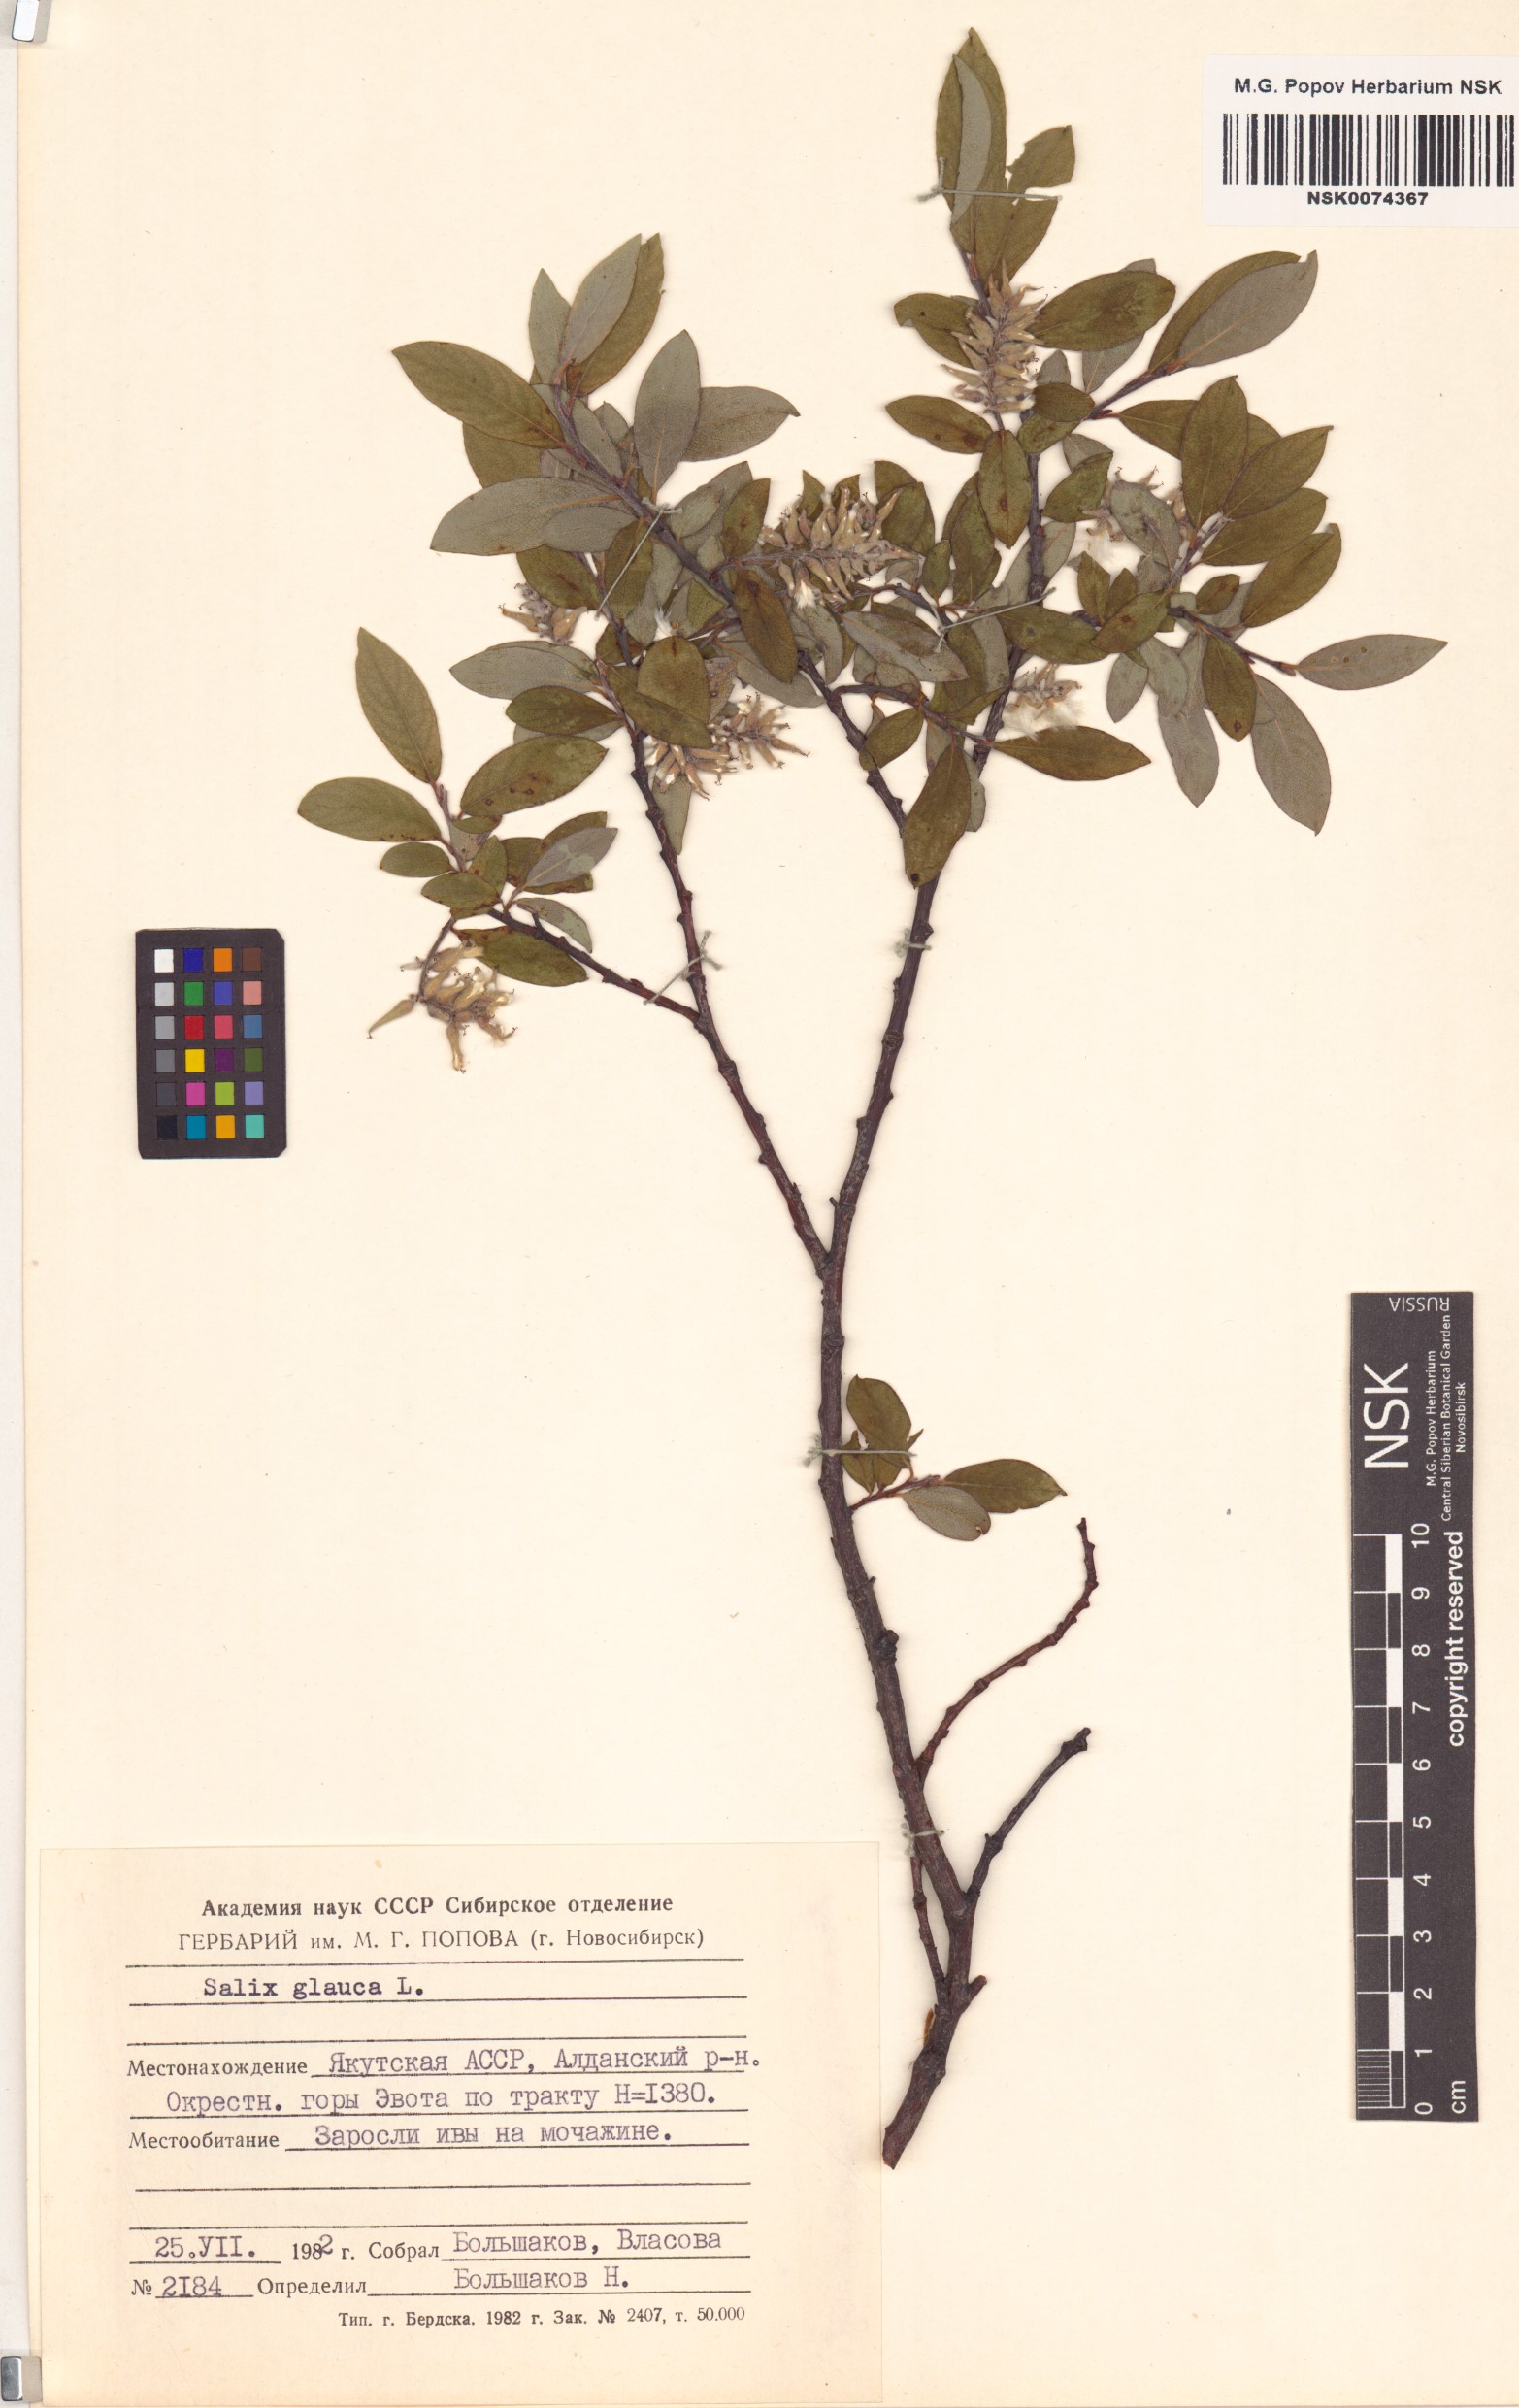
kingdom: Plantae
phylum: Tracheophyta
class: Magnoliopsida
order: Malpighiales
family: Salicaceae
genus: Salix
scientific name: Salix glauca
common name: Glaucous willow
